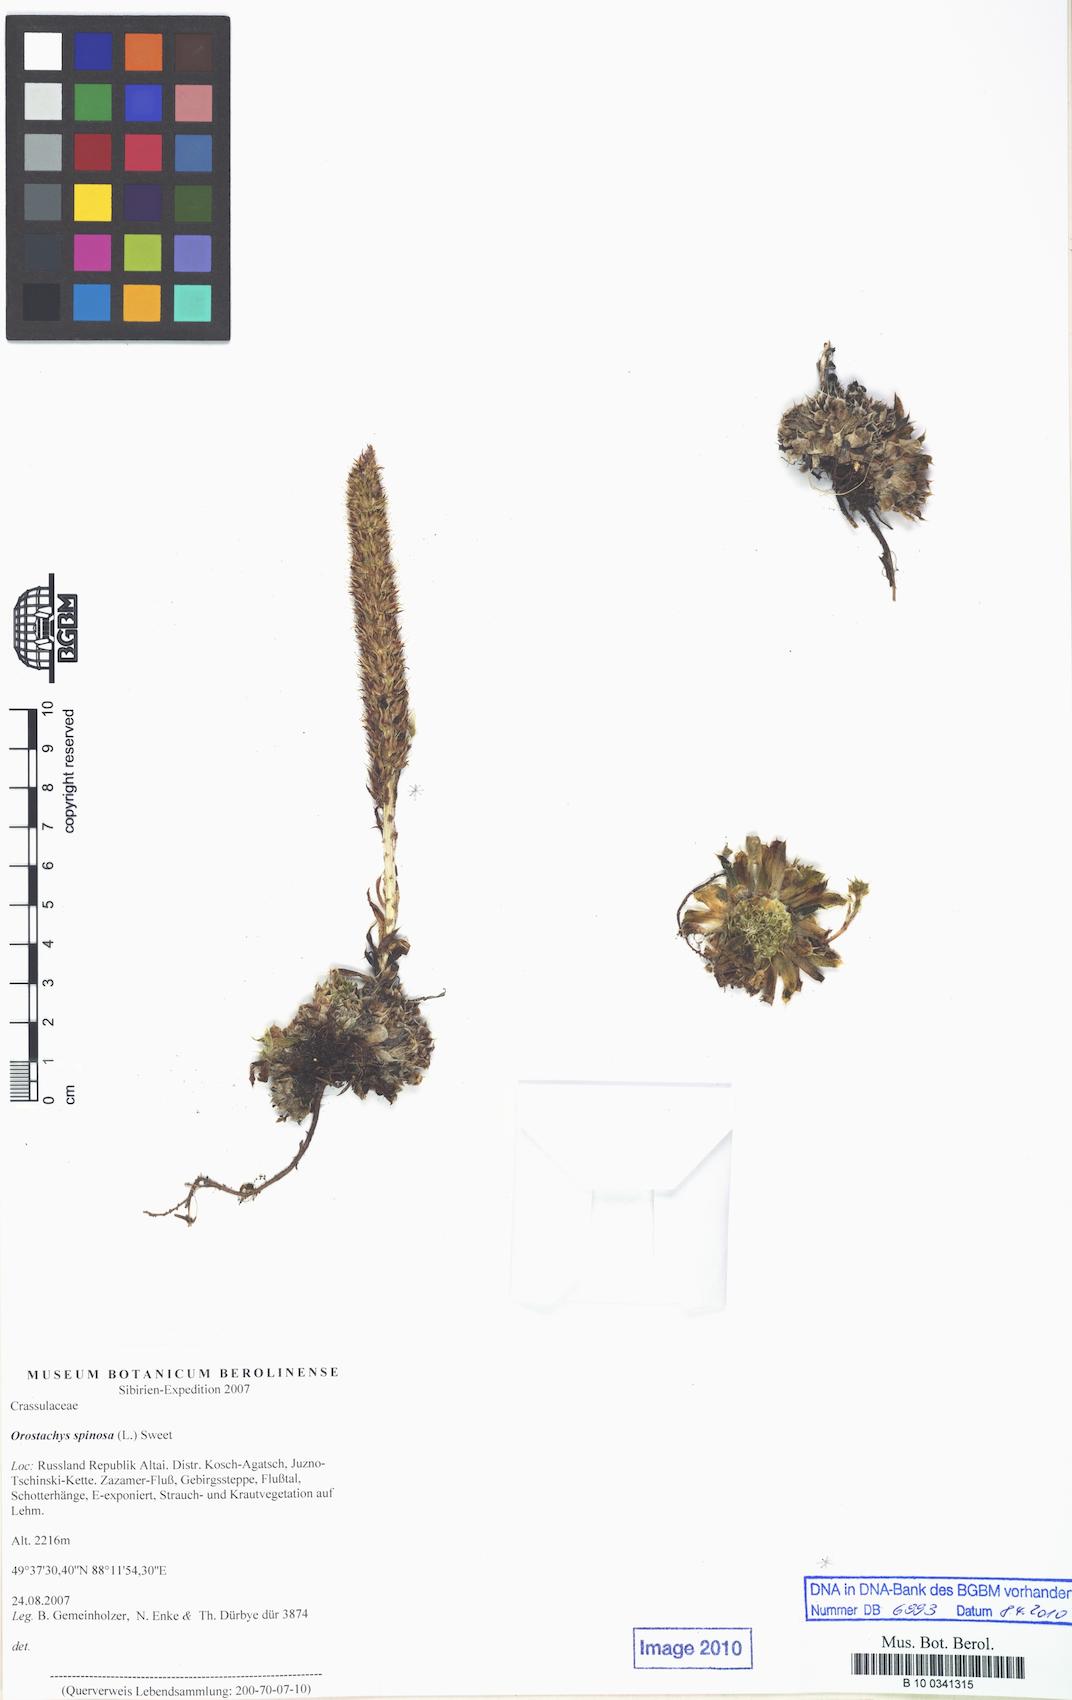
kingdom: Plantae
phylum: Tracheophyta
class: Magnoliopsida
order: Saxifragales
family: Crassulaceae
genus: Orostachys
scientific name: Orostachys spinosa
